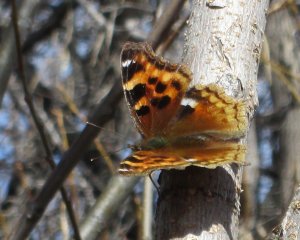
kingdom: Animalia
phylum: Arthropoda
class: Insecta
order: Lepidoptera
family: Nymphalidae
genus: Polygonia
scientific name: Polygonia vaualbum
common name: Compton Tortoiseshell
